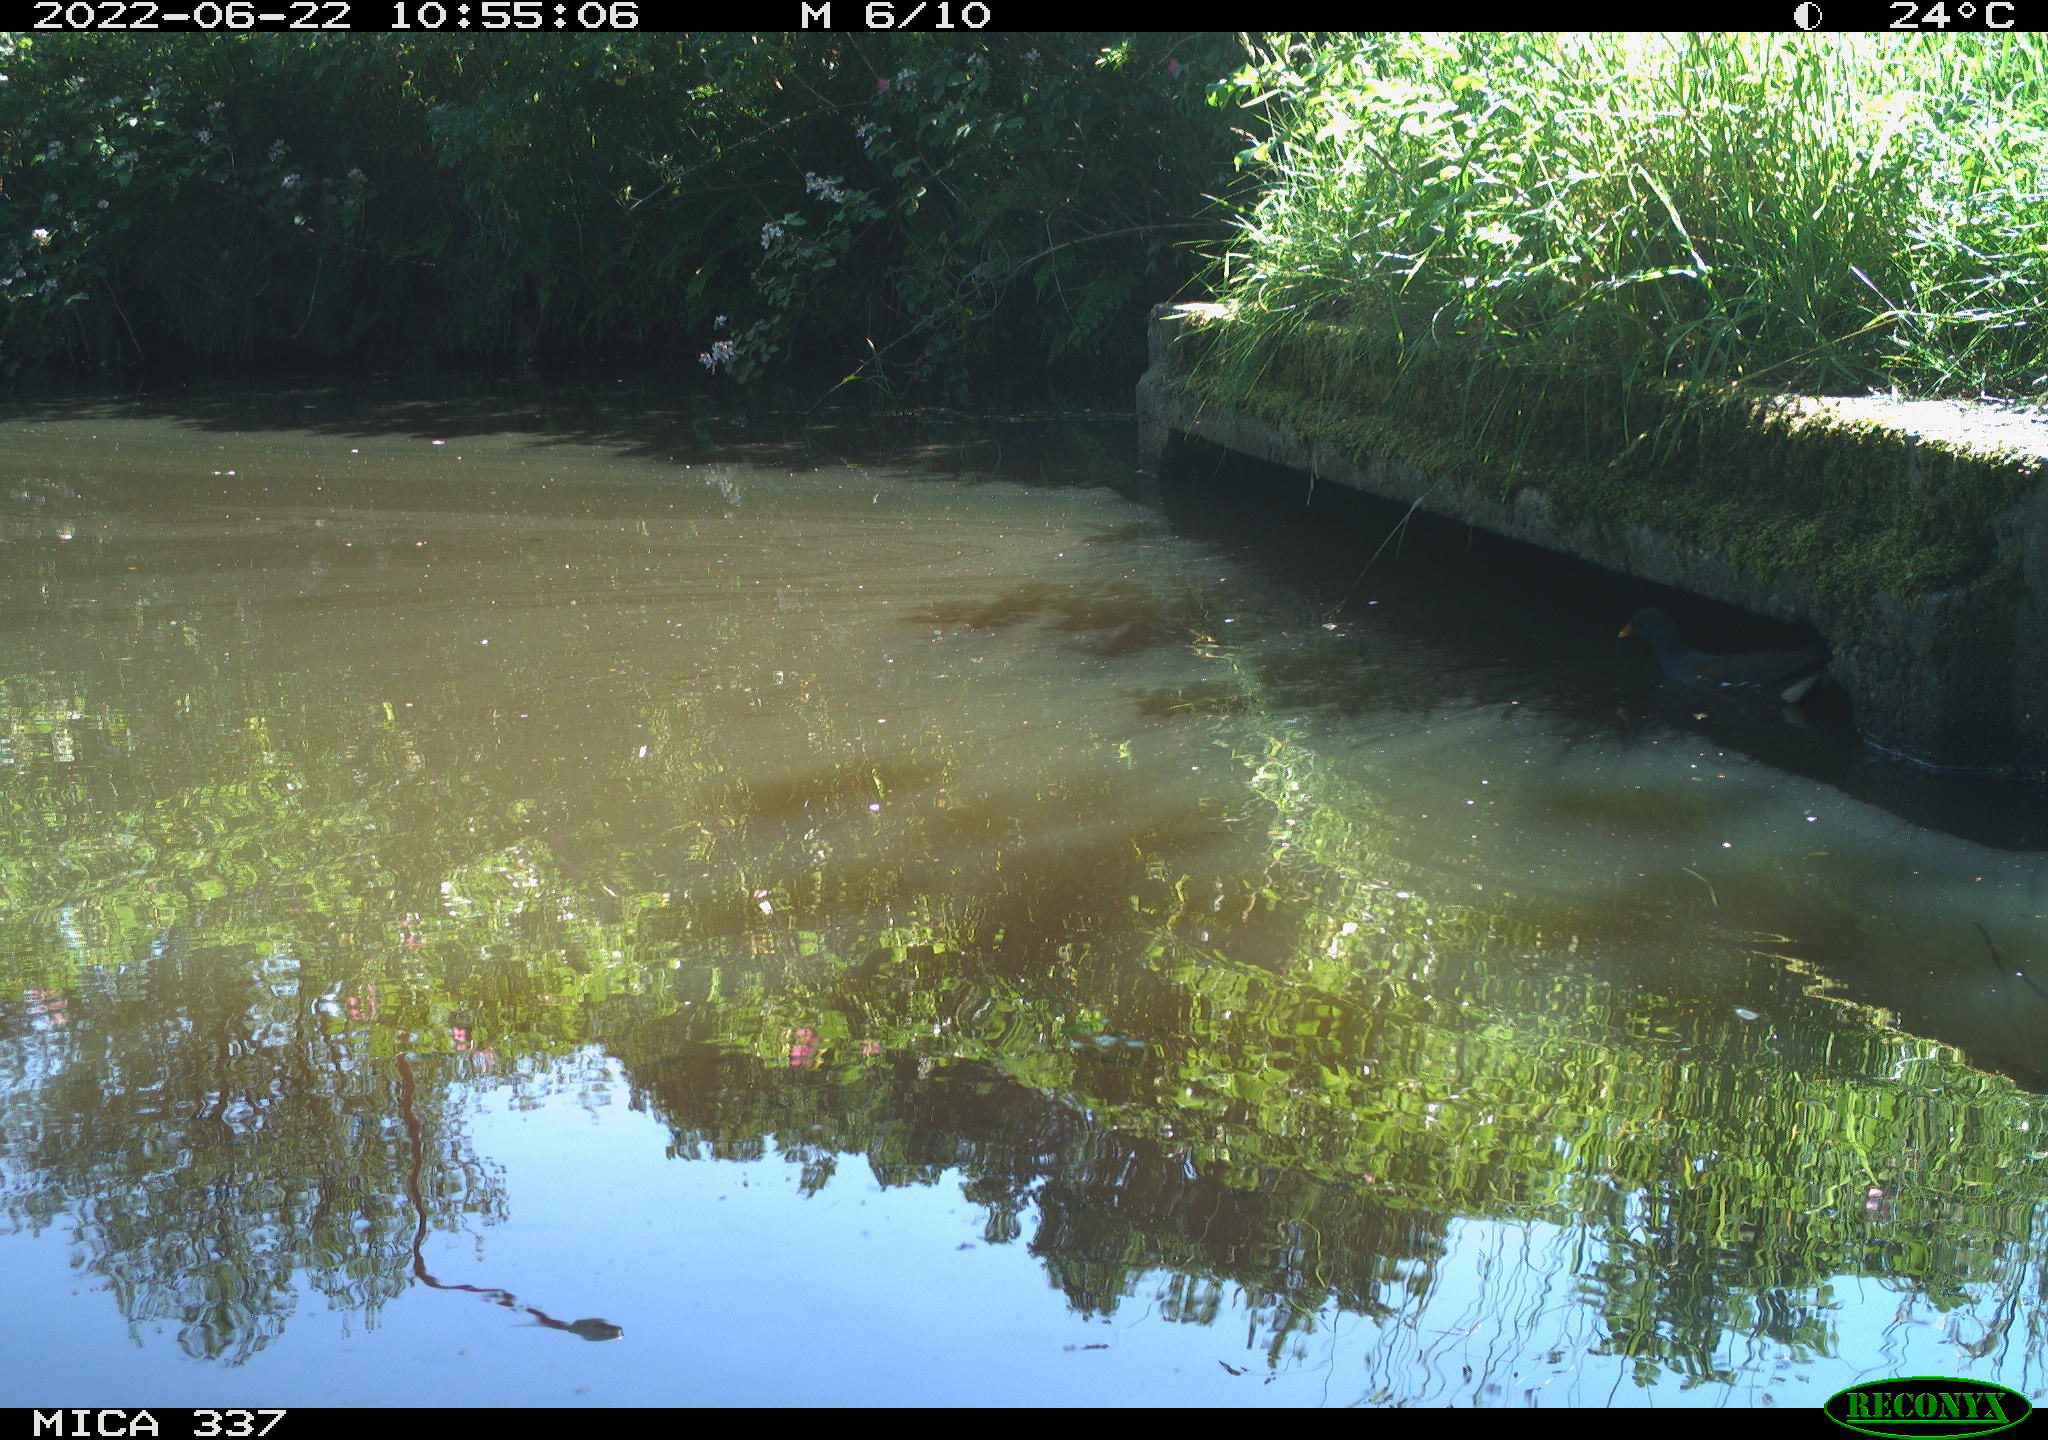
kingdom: Animalia
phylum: Chordata
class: Aves
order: Gruiformes
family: Rallidae
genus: Gallinula
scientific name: Gallinula chloropus
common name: Common moorhen
